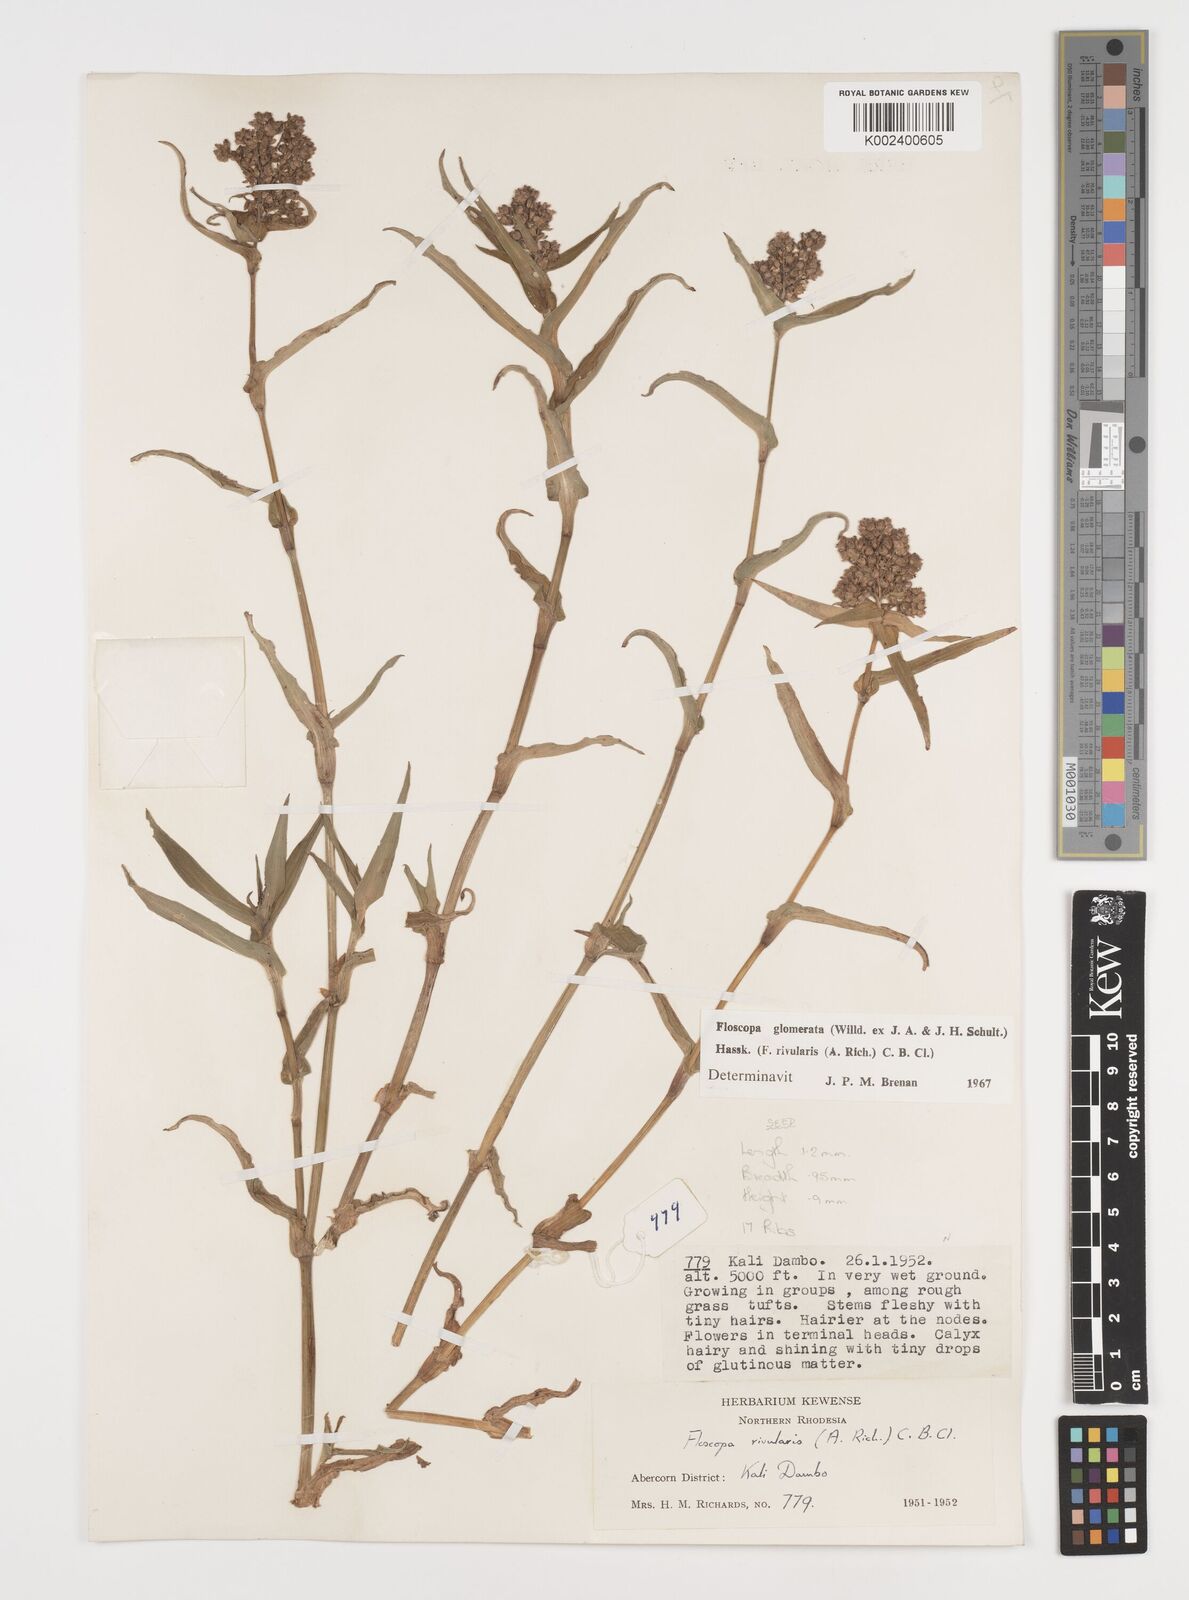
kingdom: Plantae
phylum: Tracheophyta
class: Liliopsida
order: Commelinales
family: Commelinaceae
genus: Floscopa
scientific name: Floscopa glomerata
